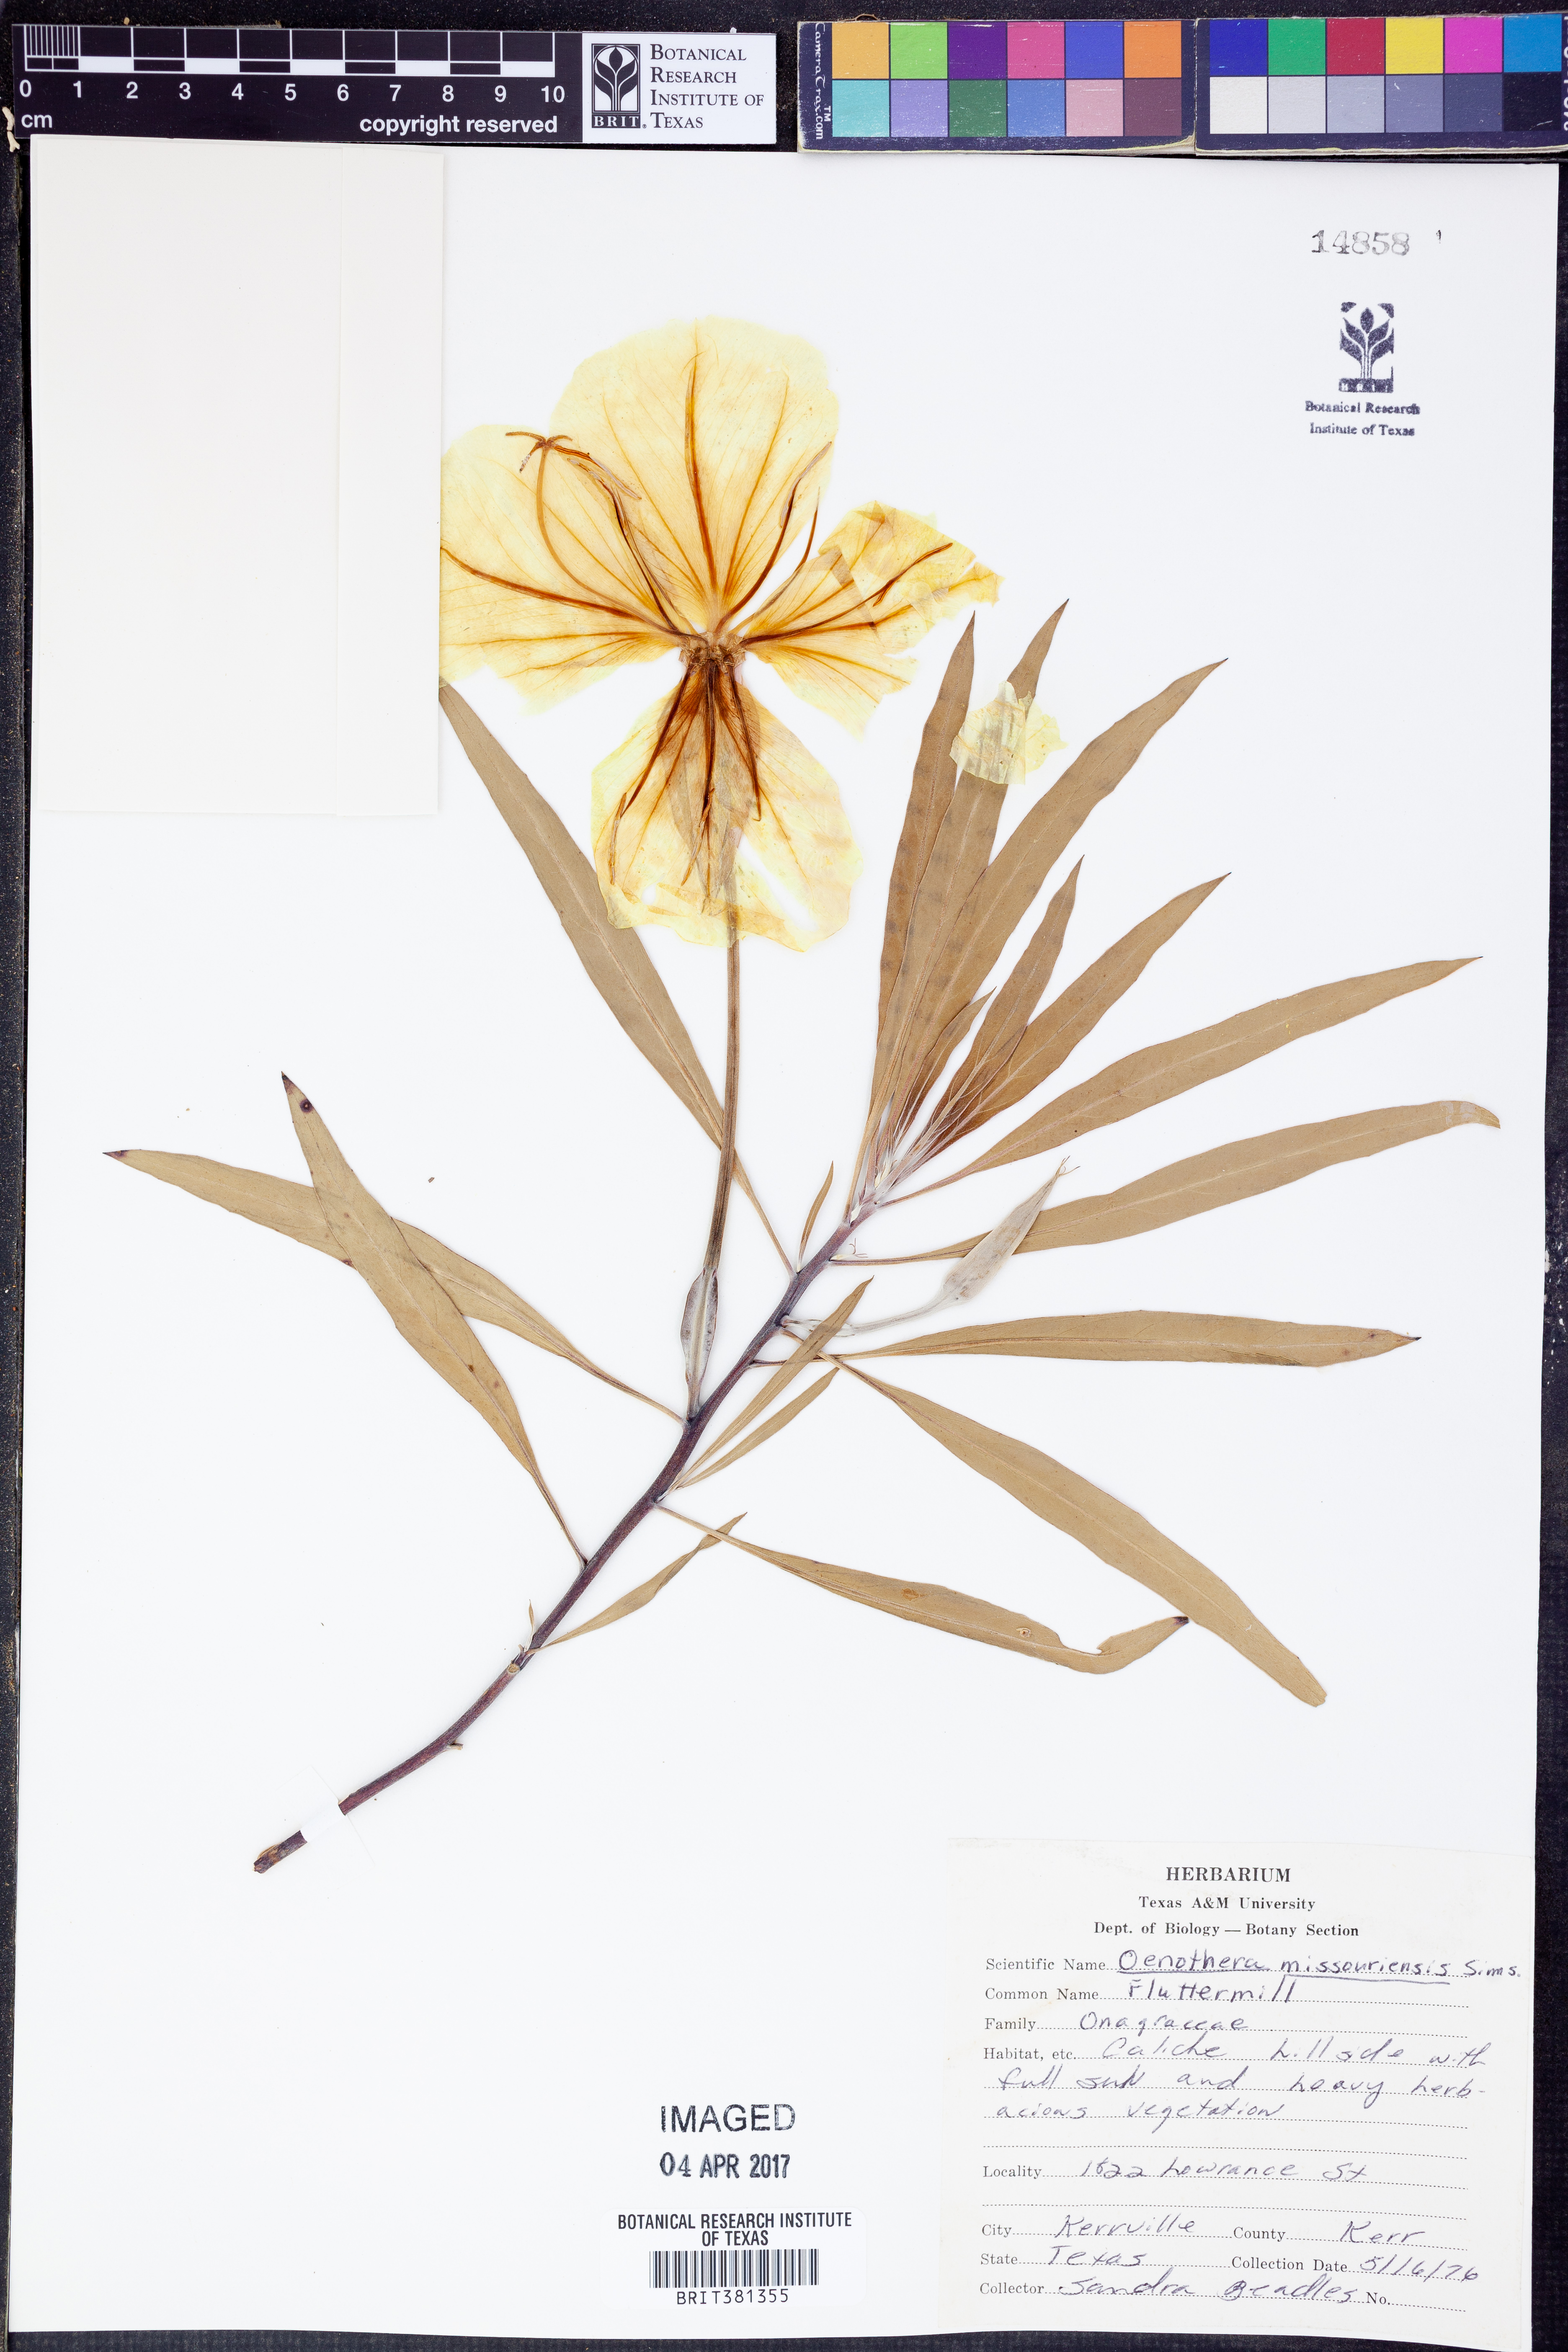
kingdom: Plantae
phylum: Tracheophyta
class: Magnoliopsida
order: Myrtales
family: Onagraceae
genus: Oenothera
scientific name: Oenothera macrocarpa
